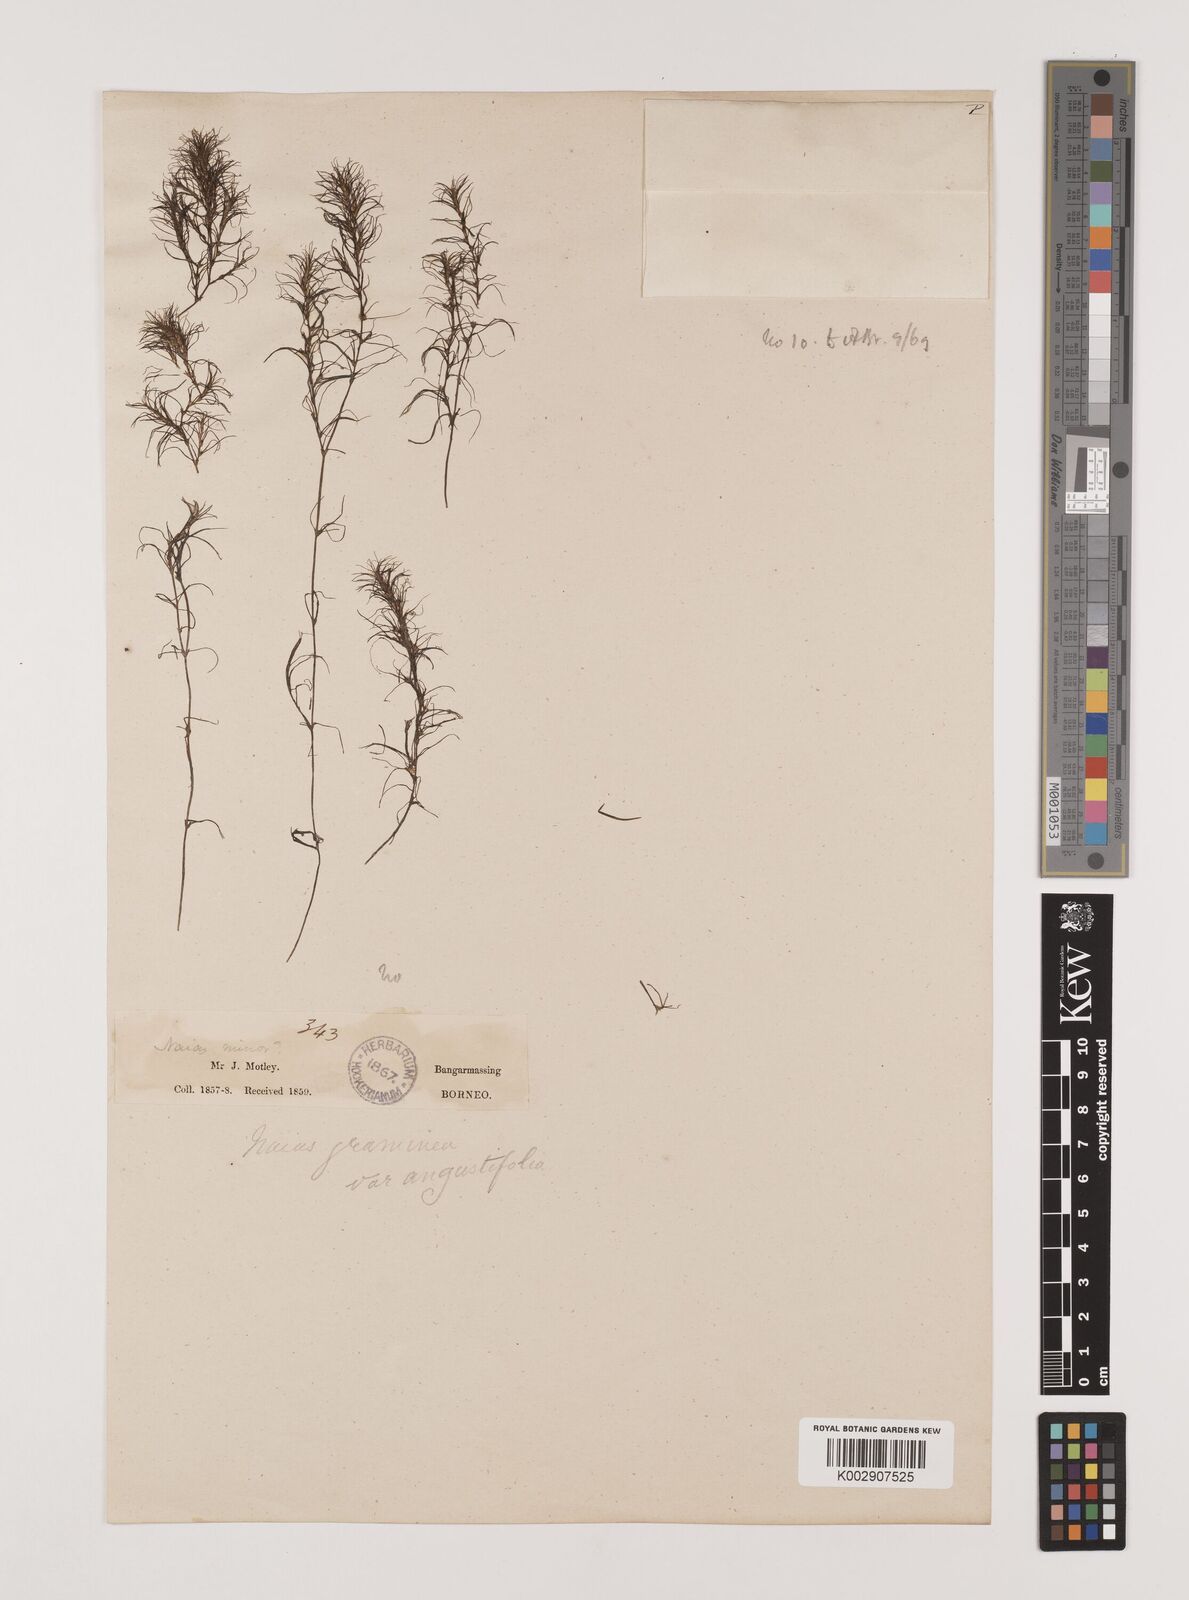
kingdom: Plantae
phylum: Tracheophyta
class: Liliopsida
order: Alismatales
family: Hydrocharitaceae
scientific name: Hydrocharitaceae
